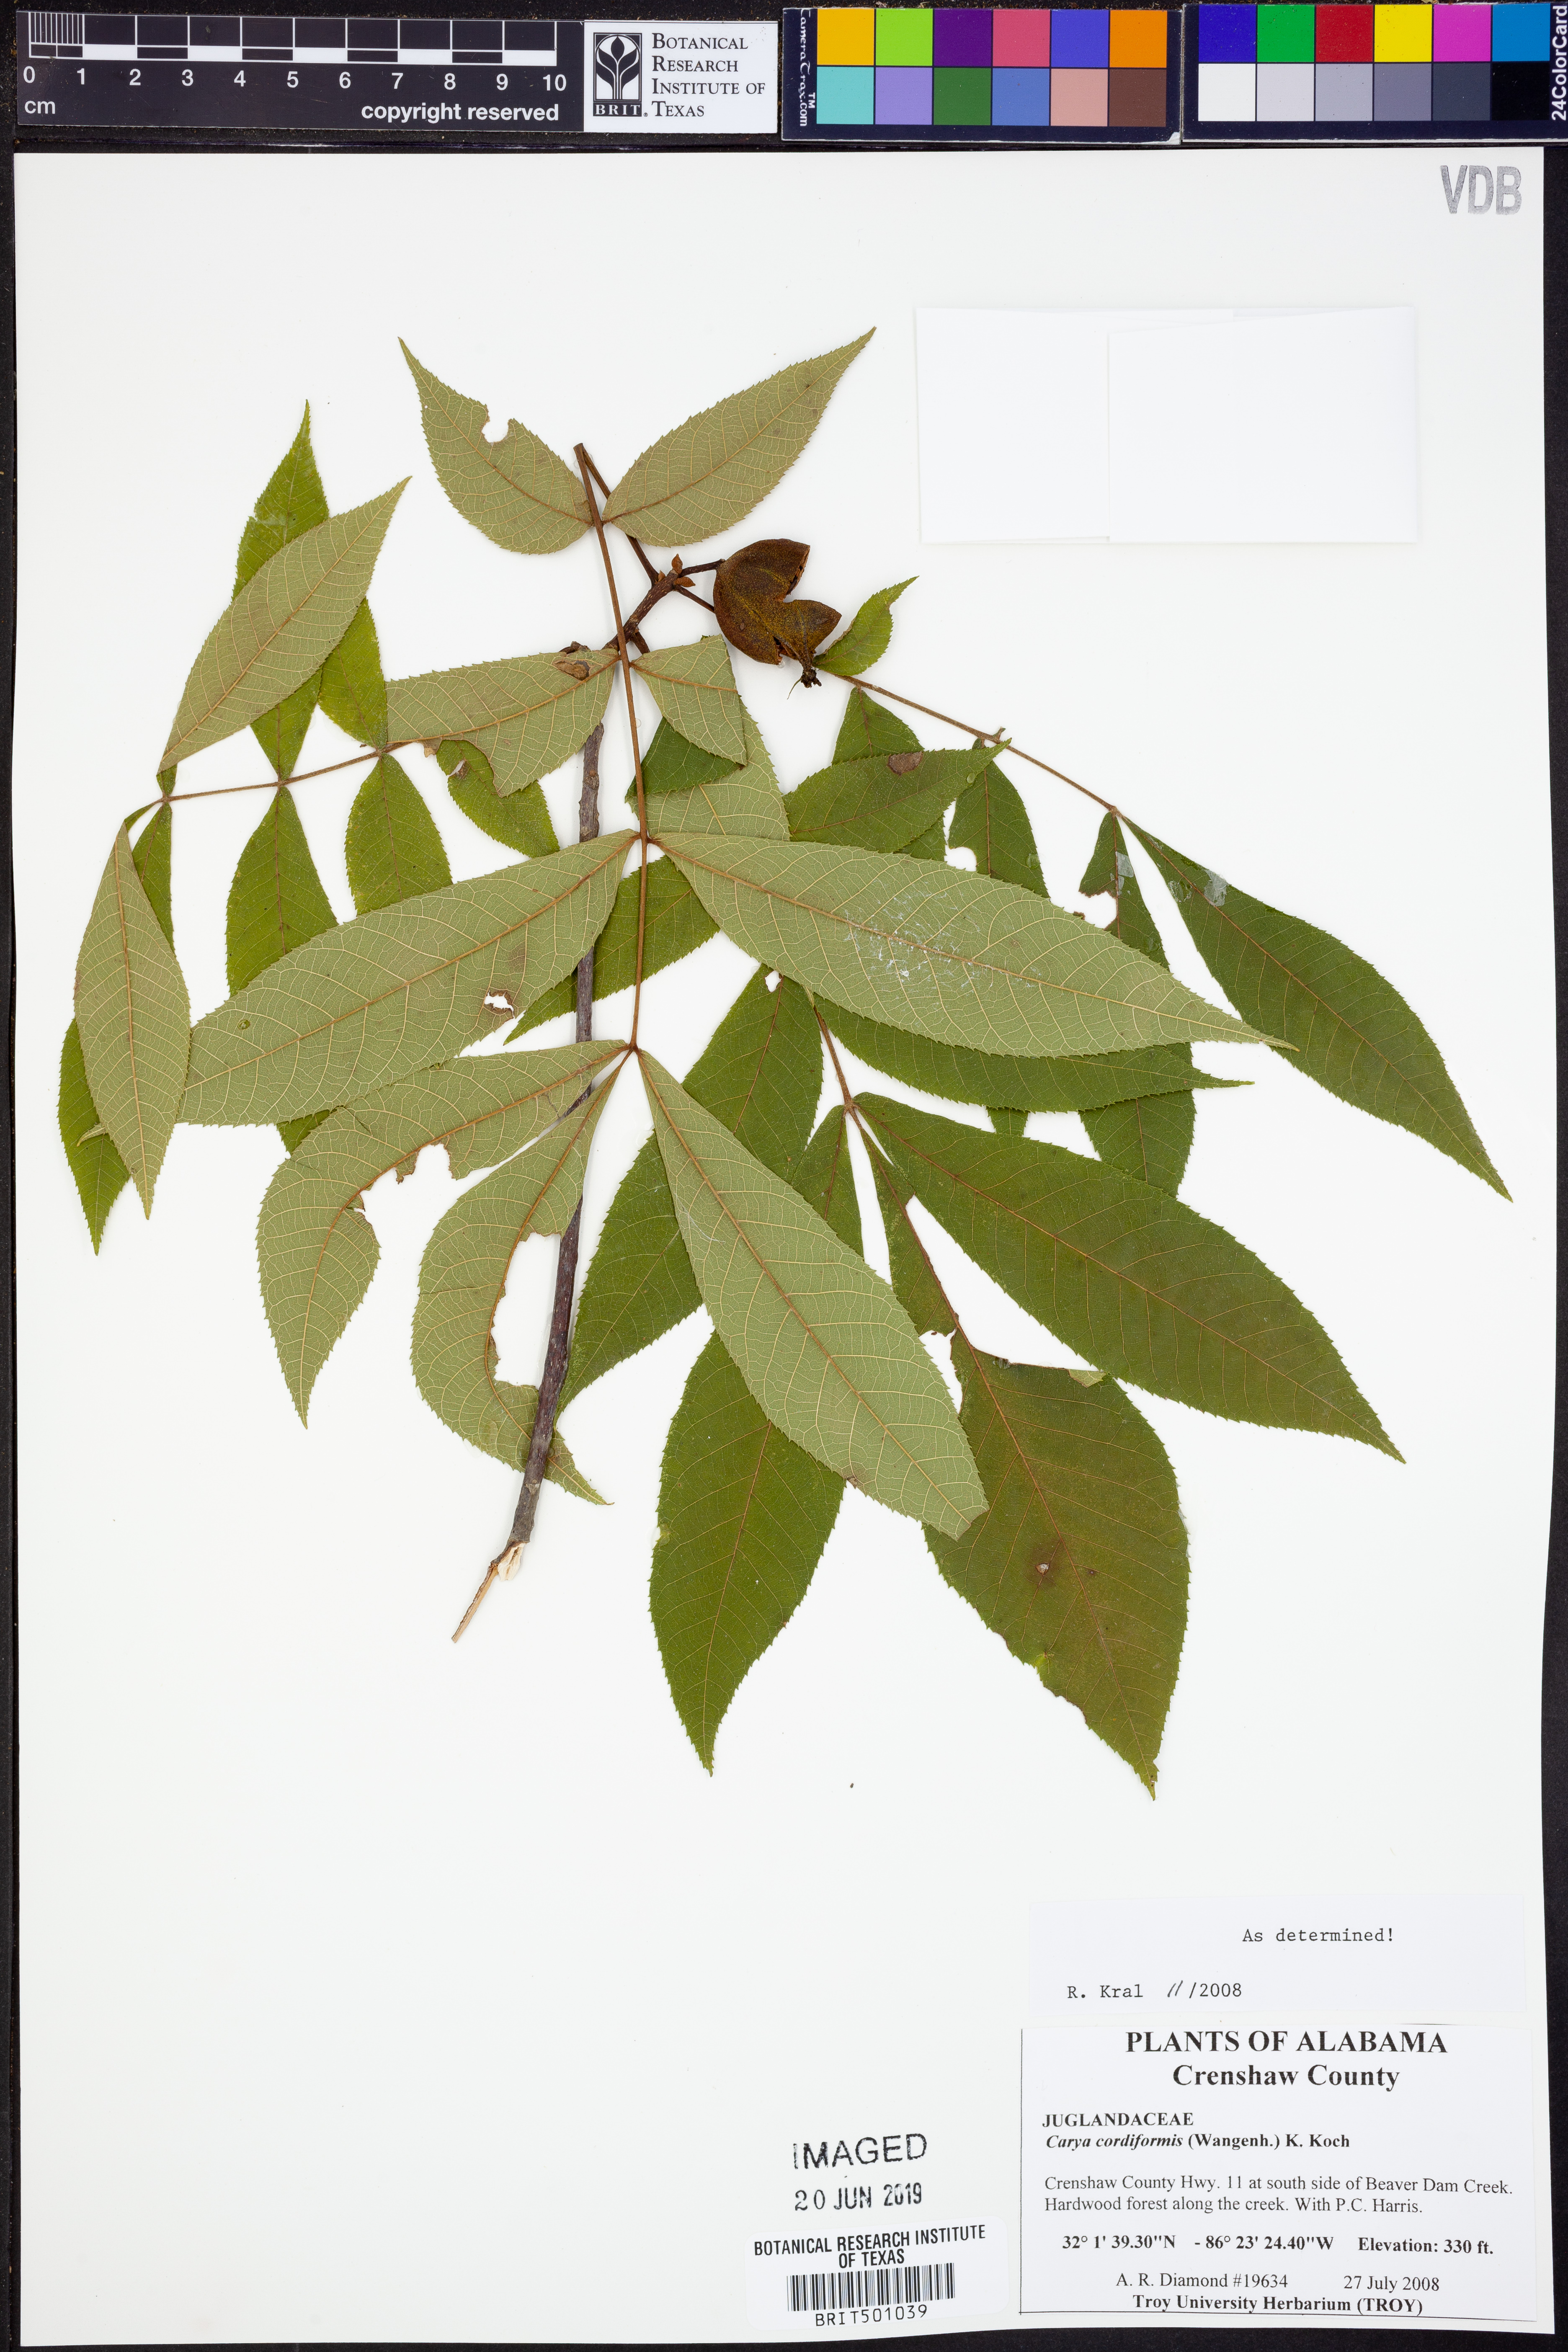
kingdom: Plantae
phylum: Tracheophyta
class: Magnoliopsida
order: Fagales
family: Juglandaceae
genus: Carya
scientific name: Carya cordiformis
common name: Bitternut hickory
